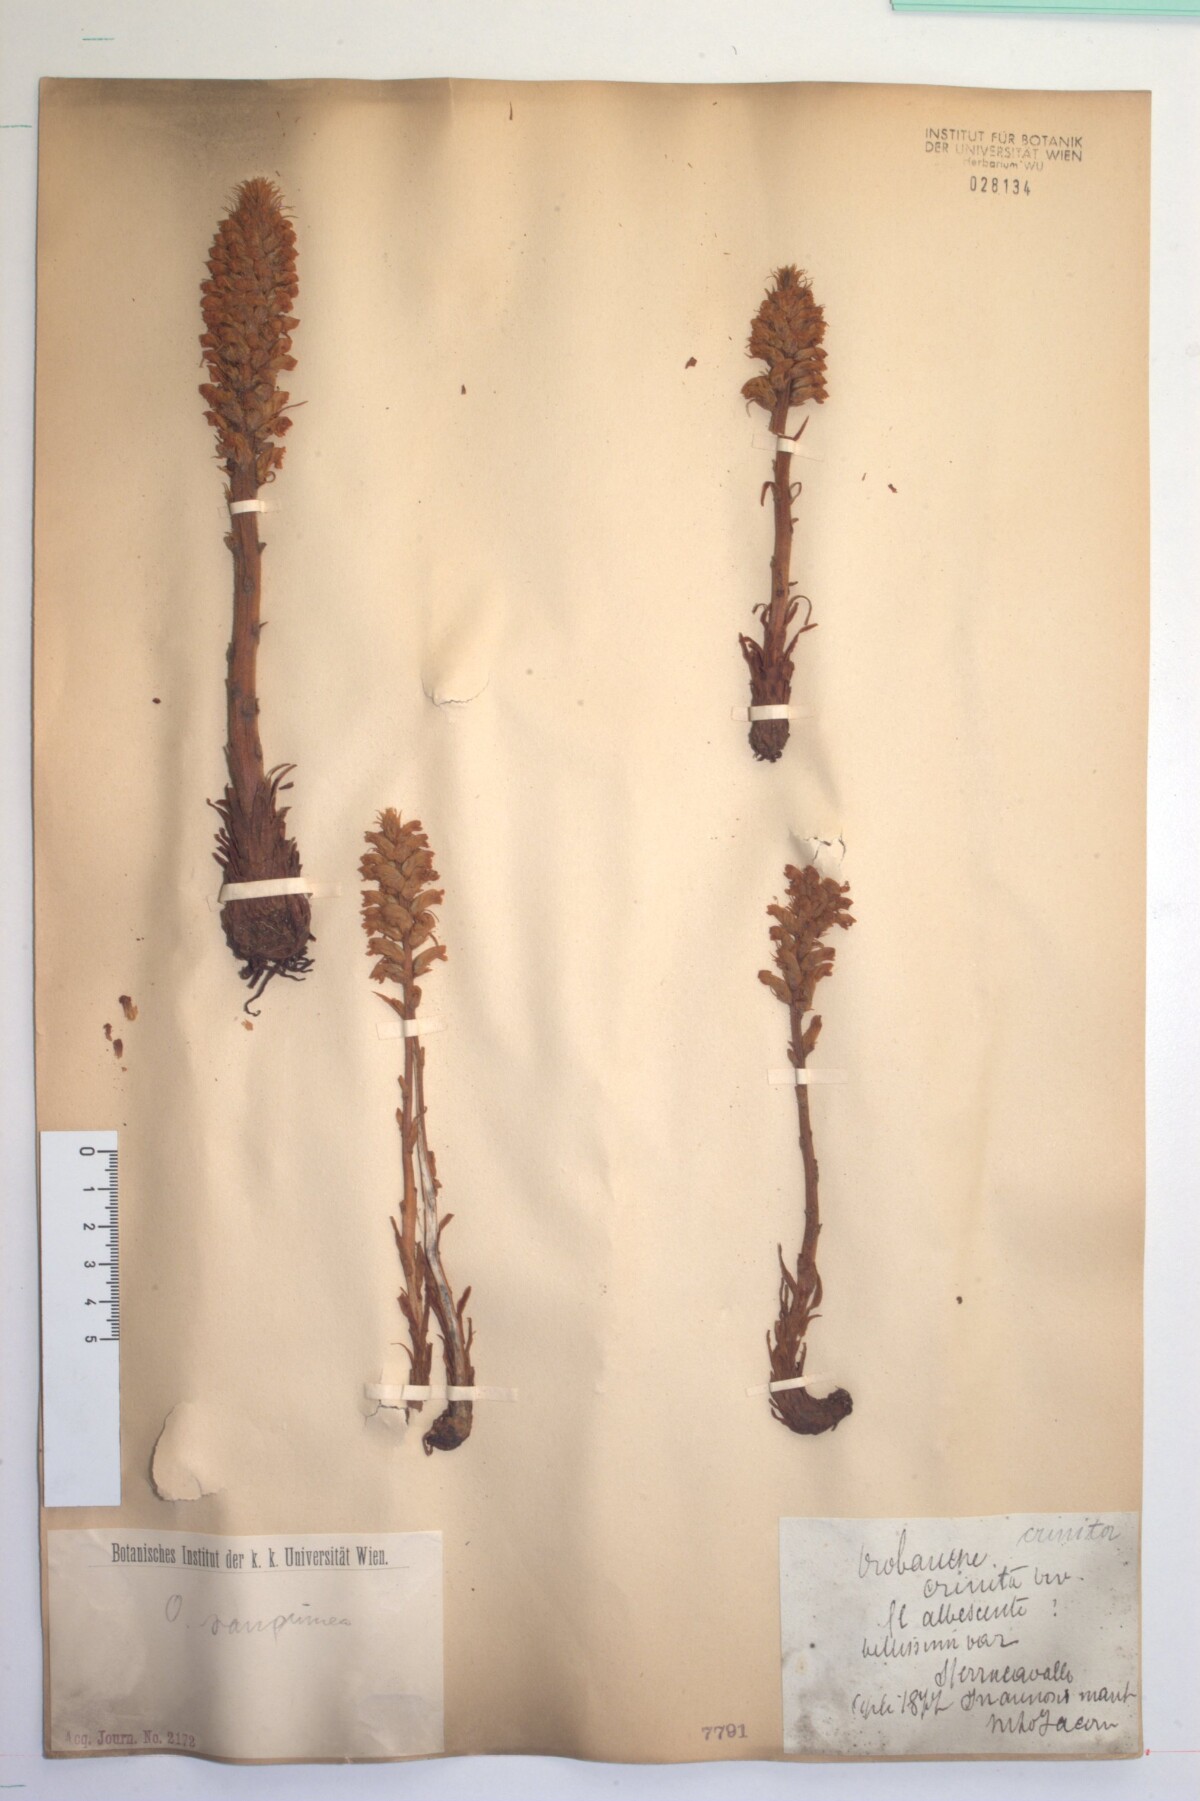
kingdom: Plantae
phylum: Tracheophyta
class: Magnoliopsida
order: Lamiales
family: Orobanchaceae
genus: Orobanche
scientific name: Orobanche sanguinea
